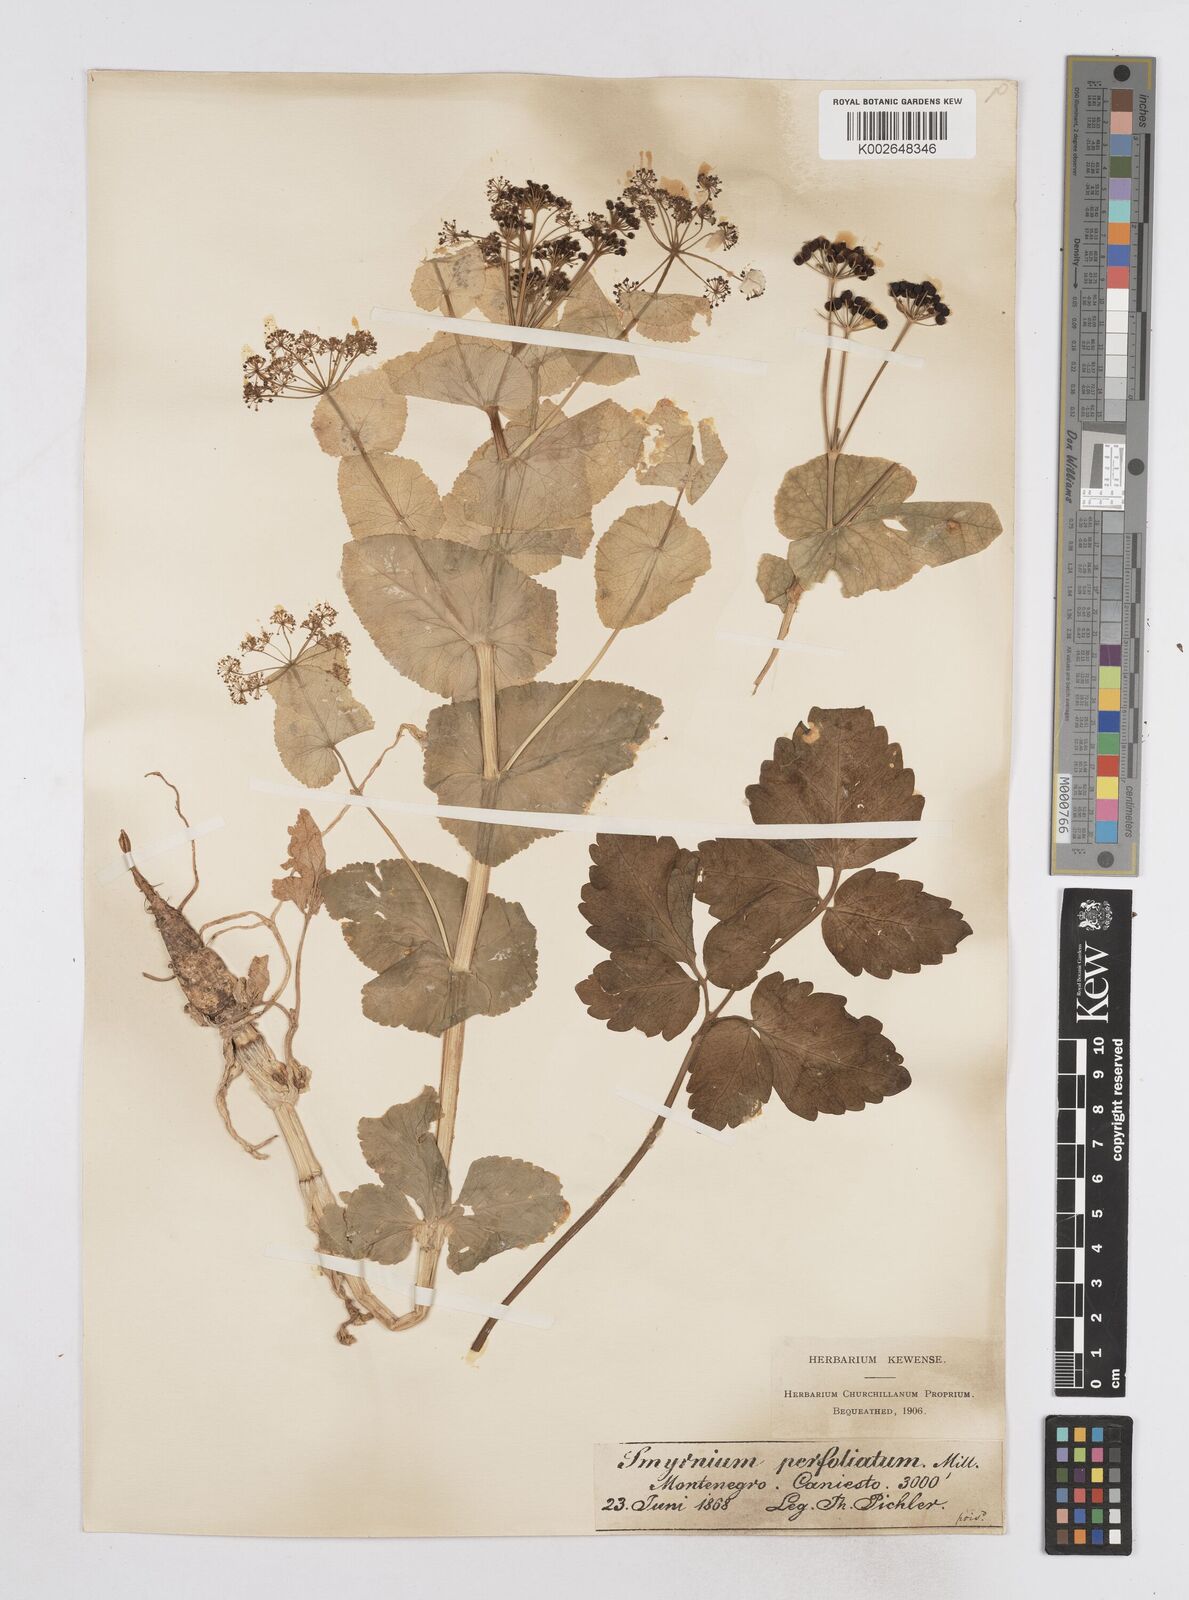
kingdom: Plantae
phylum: Tracheophyta
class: Magnoliopsida
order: Apiales
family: Apiaceae
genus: Smyrnium
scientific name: Smyrnium perfoliatum
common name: Perfoliate alexanders
